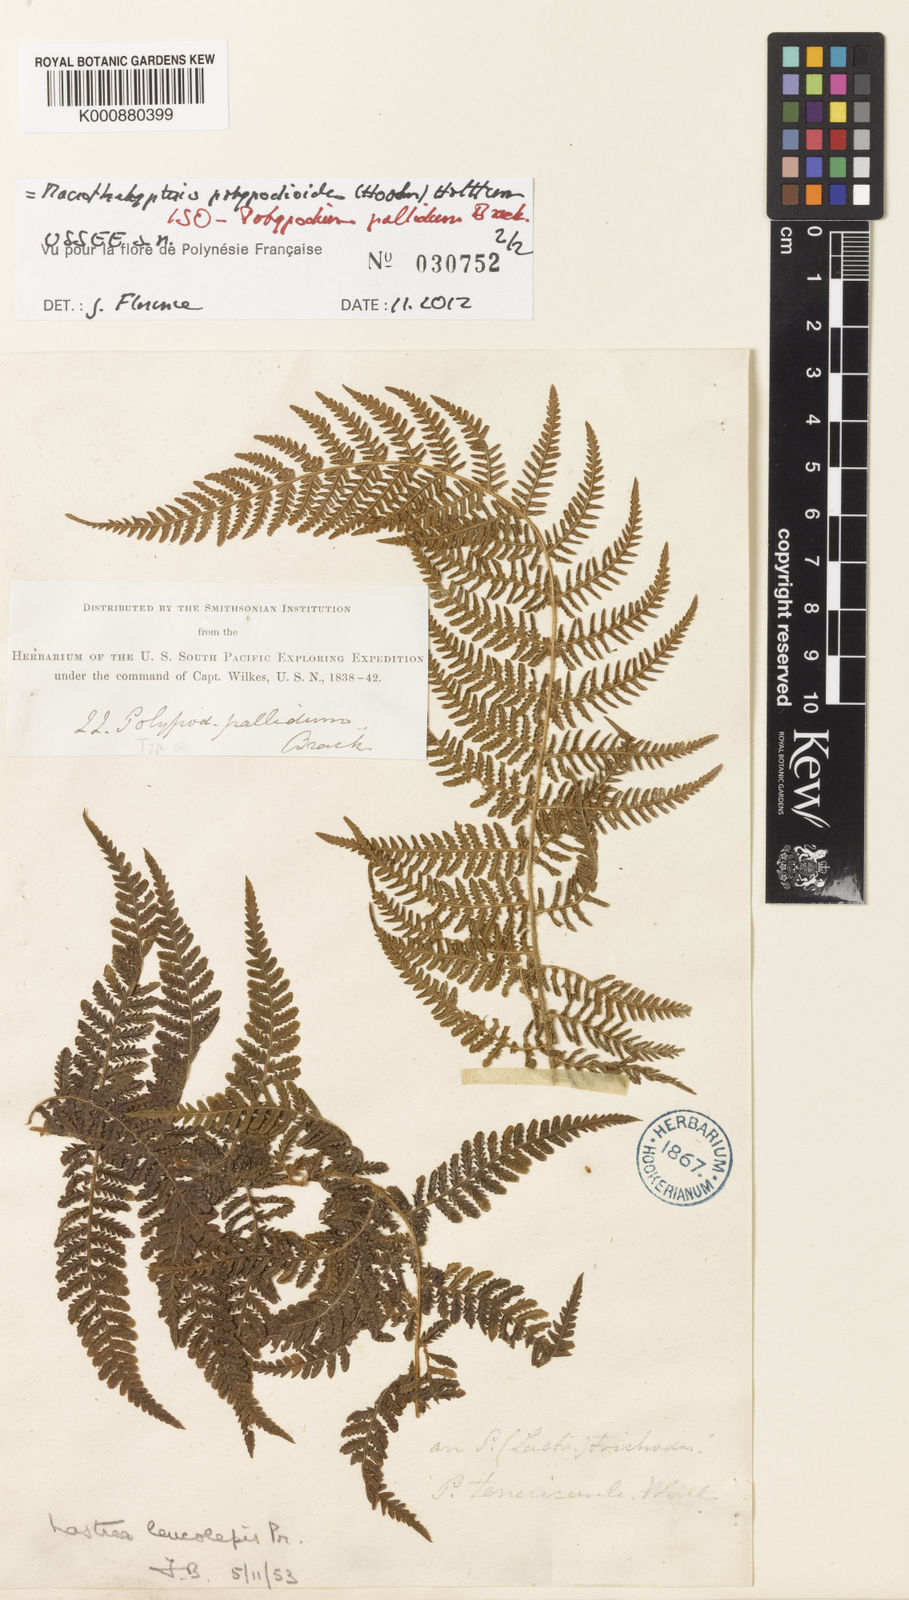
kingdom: Plantae
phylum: Tracheophyta
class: Polypodiopsida
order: Polypodiales
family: Thelypteridaceae
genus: Macrothelypteris
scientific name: Macrothelypteris polypodioides
